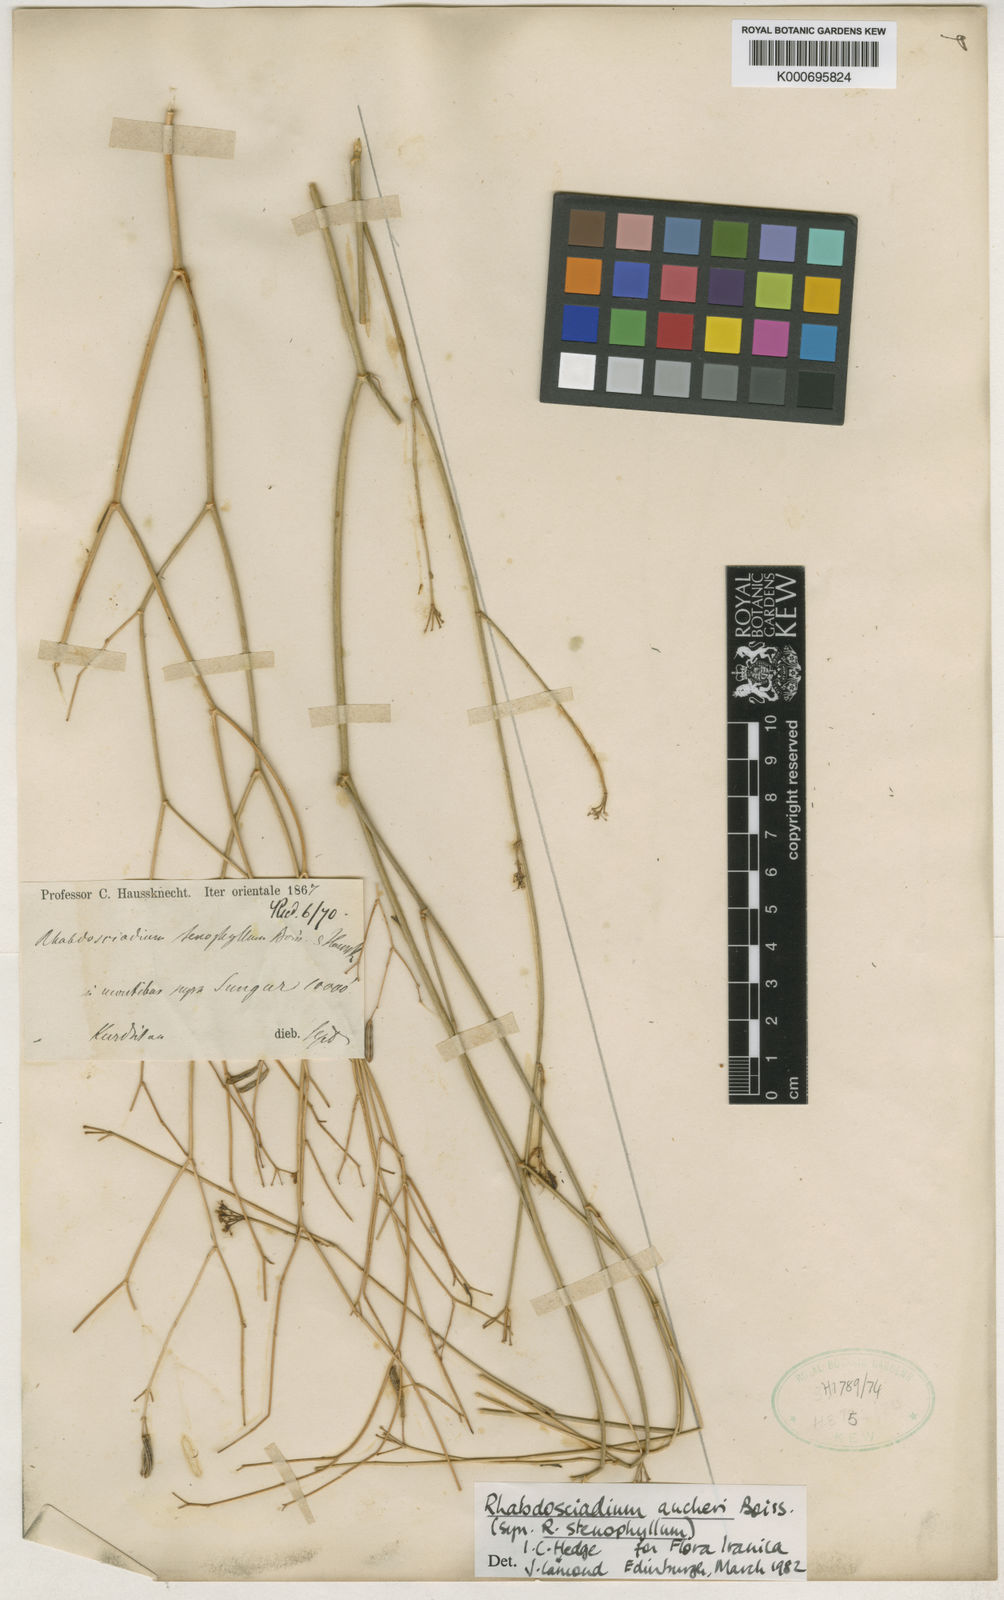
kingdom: Plantae
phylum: Tracheophyta
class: Magnoliopsida
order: Apiales
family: Apiaceae
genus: Rhabdosciadium
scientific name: Rhabdosciadium aucheri
